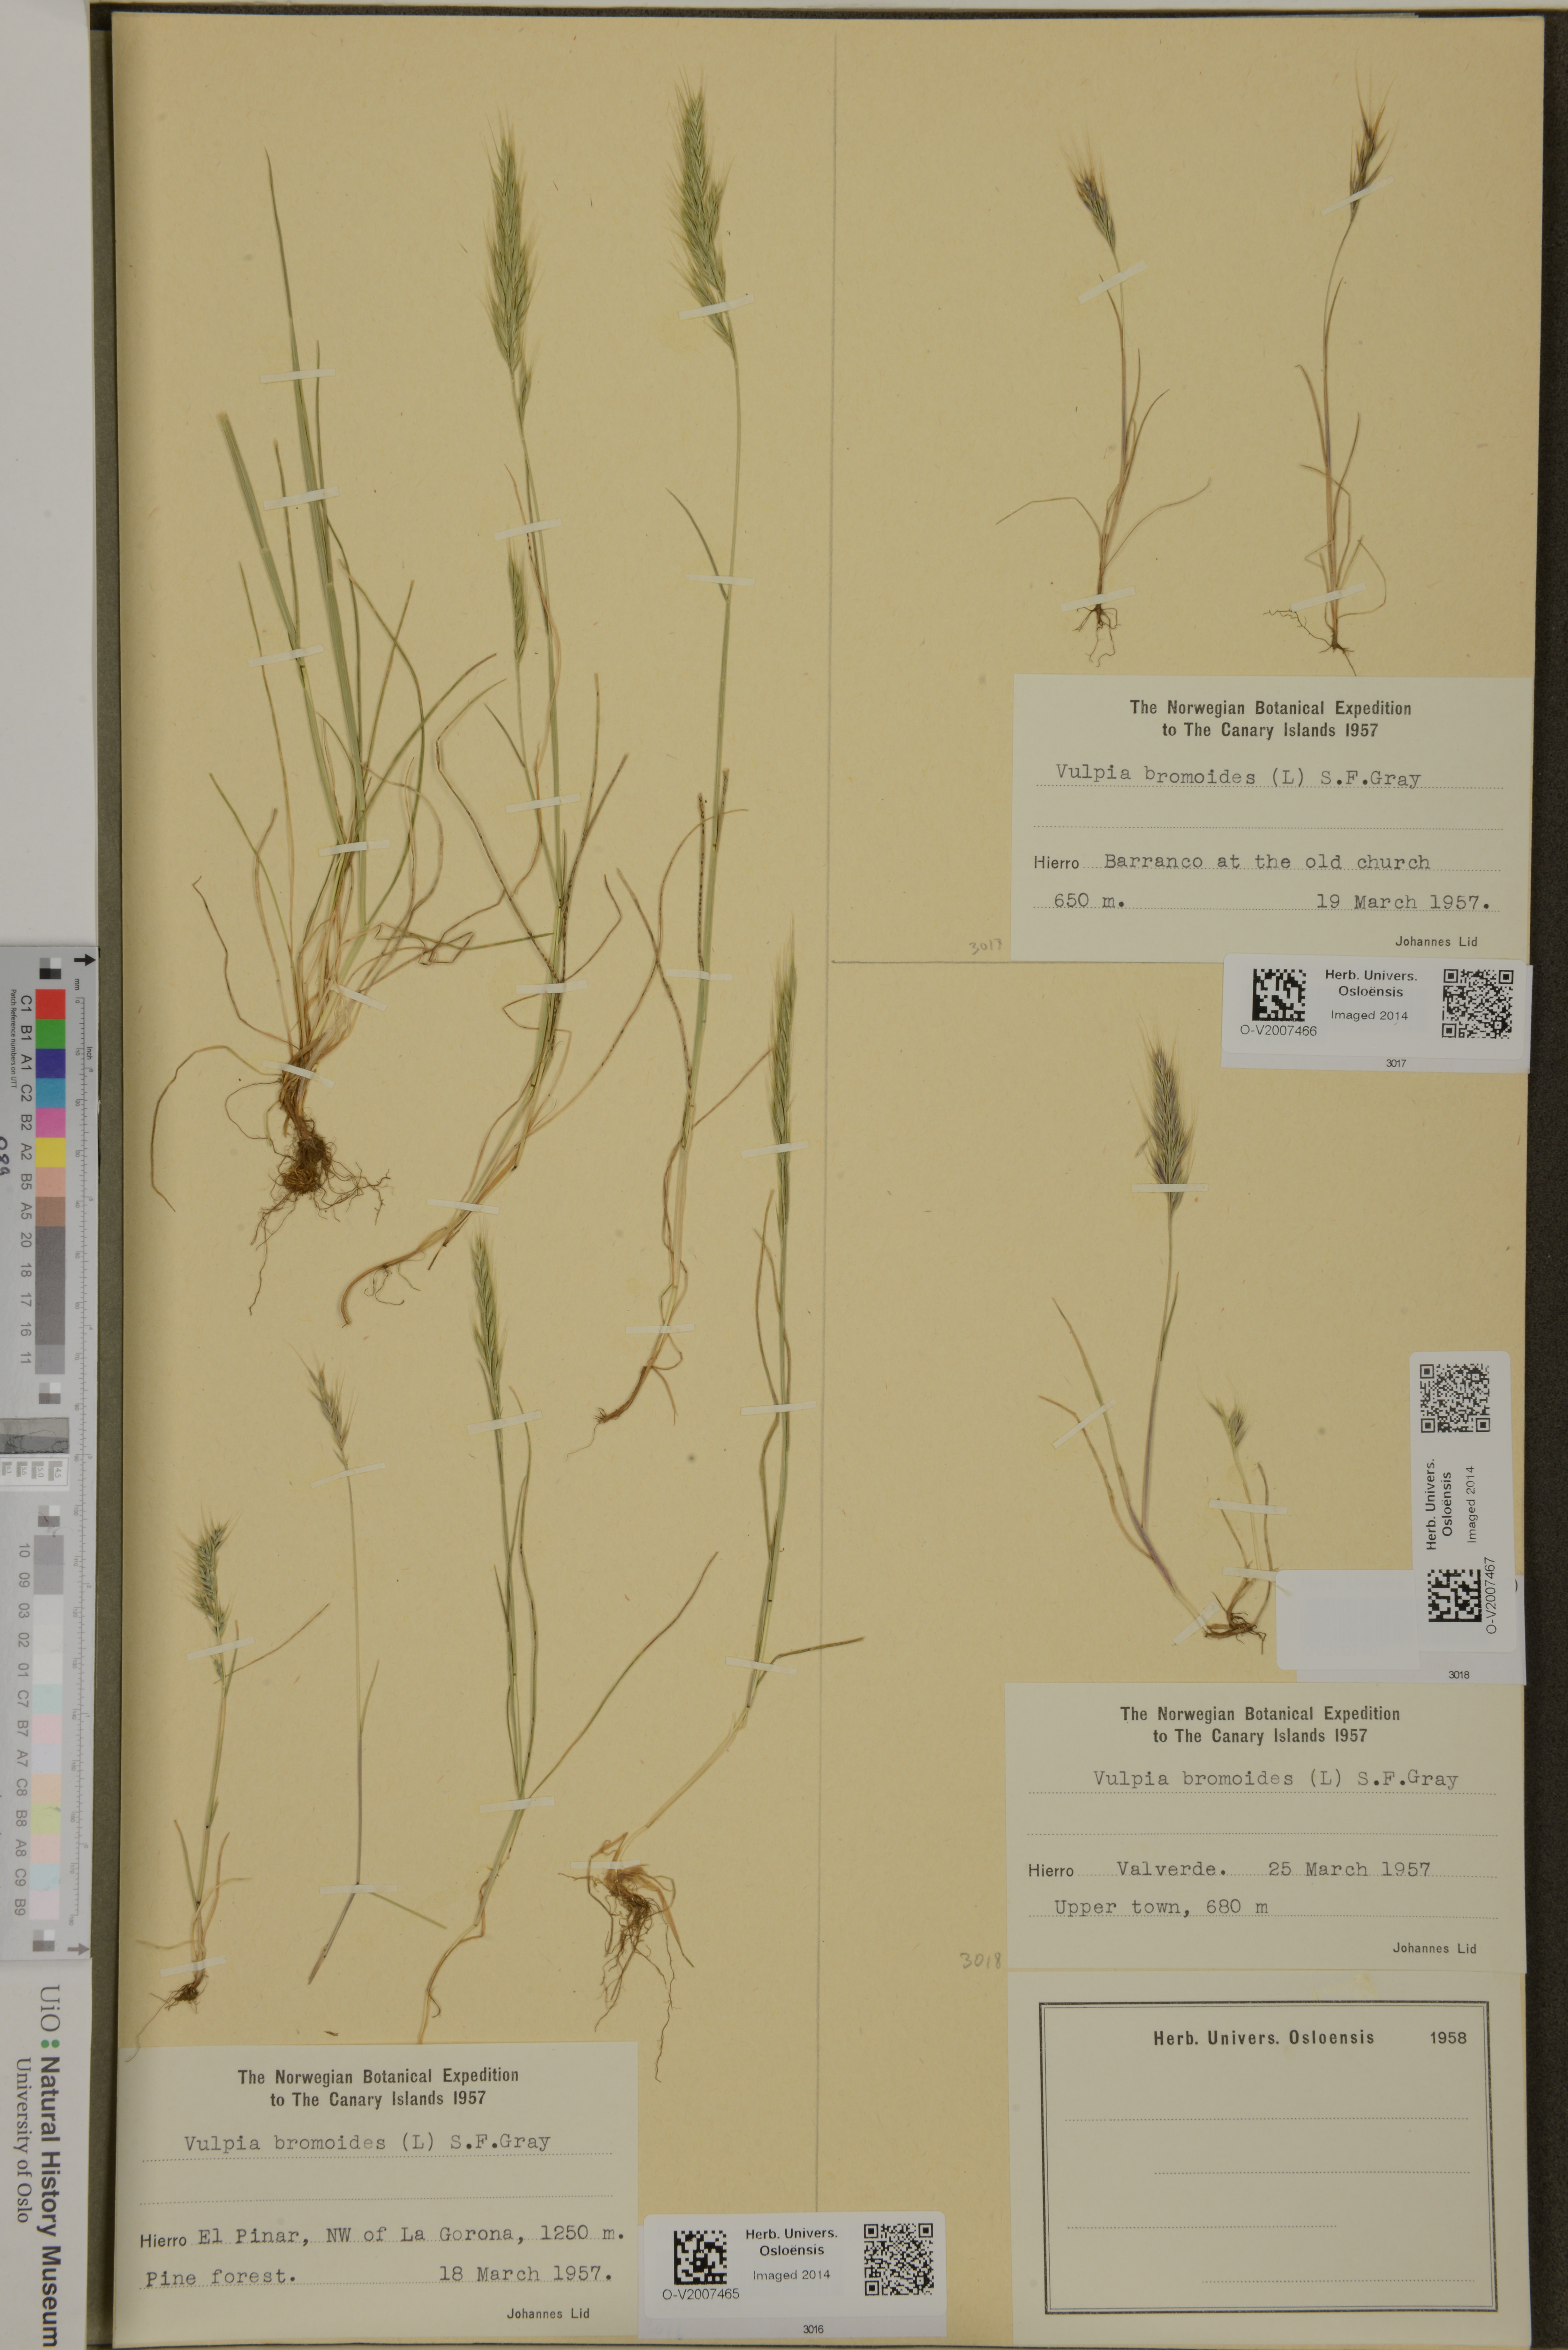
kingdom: Plantae
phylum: Tracheophyta
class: Liliopsida
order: Poales
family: Poaceae
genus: Festuca
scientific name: Festuca bromoides
